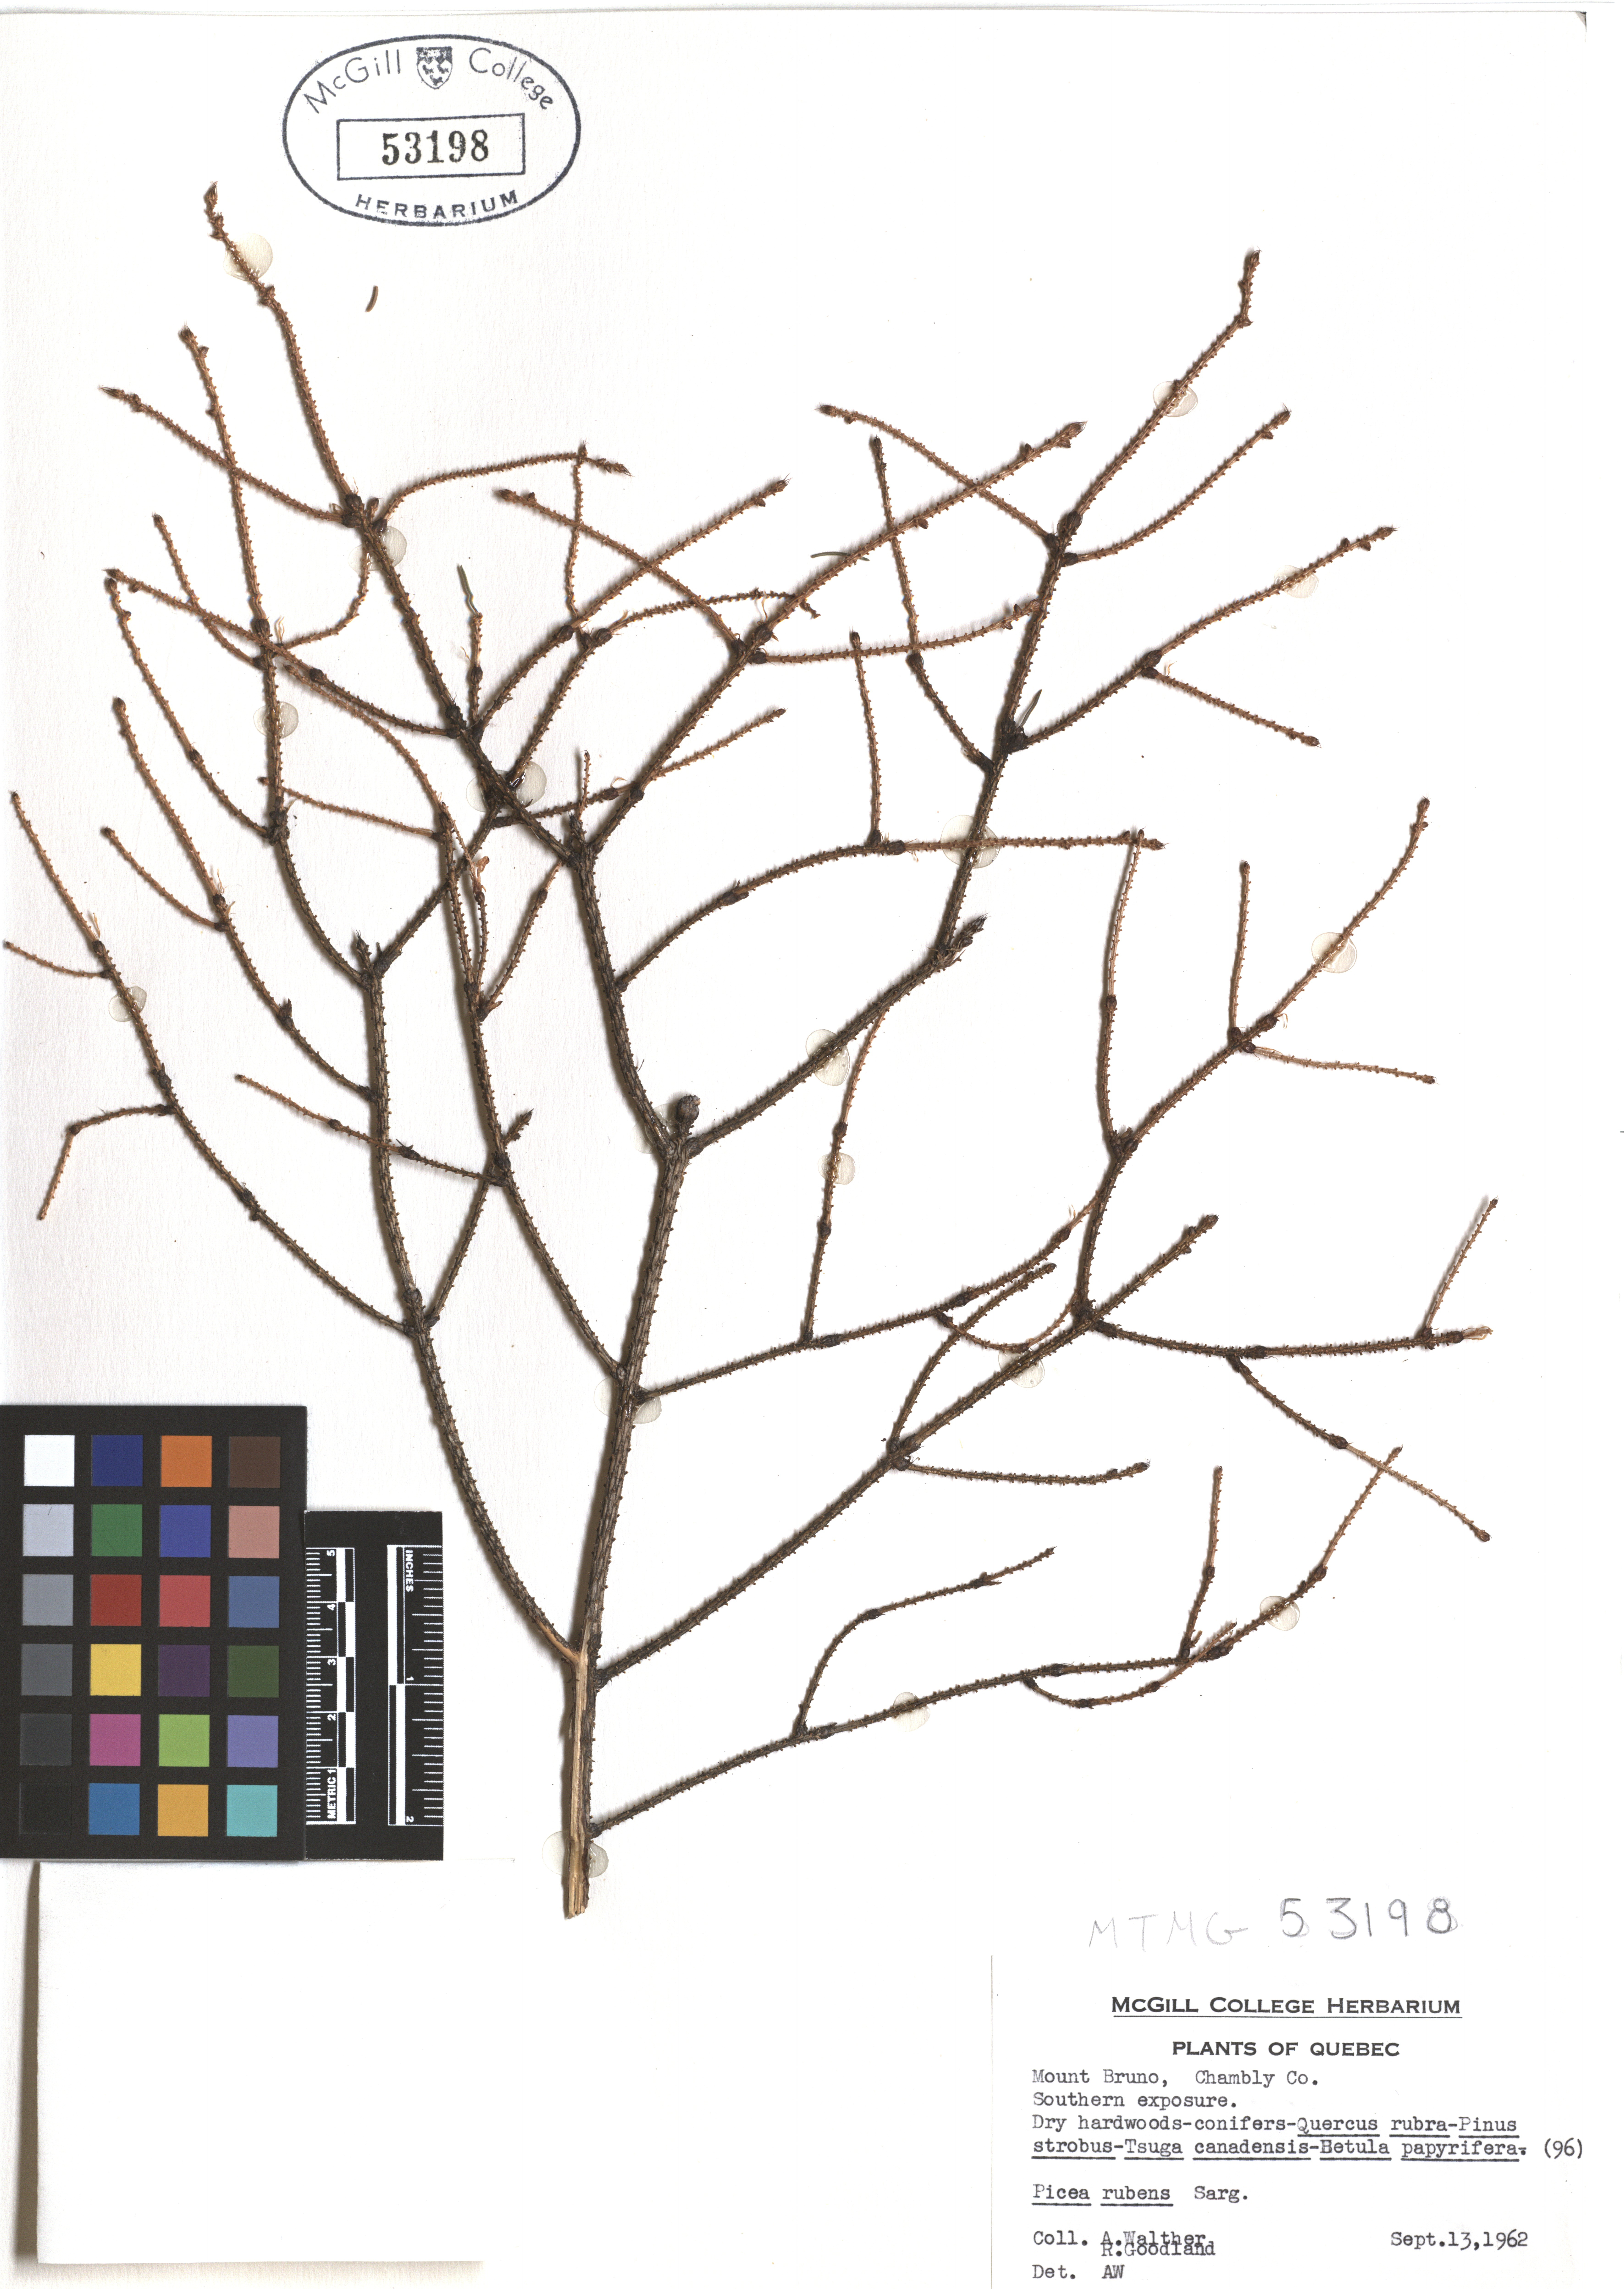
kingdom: Plantae
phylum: Tracheophyta
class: Pinopsida
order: Pinales
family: Pinaceae
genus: Picea
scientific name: Picea rubens
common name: Red spruce
